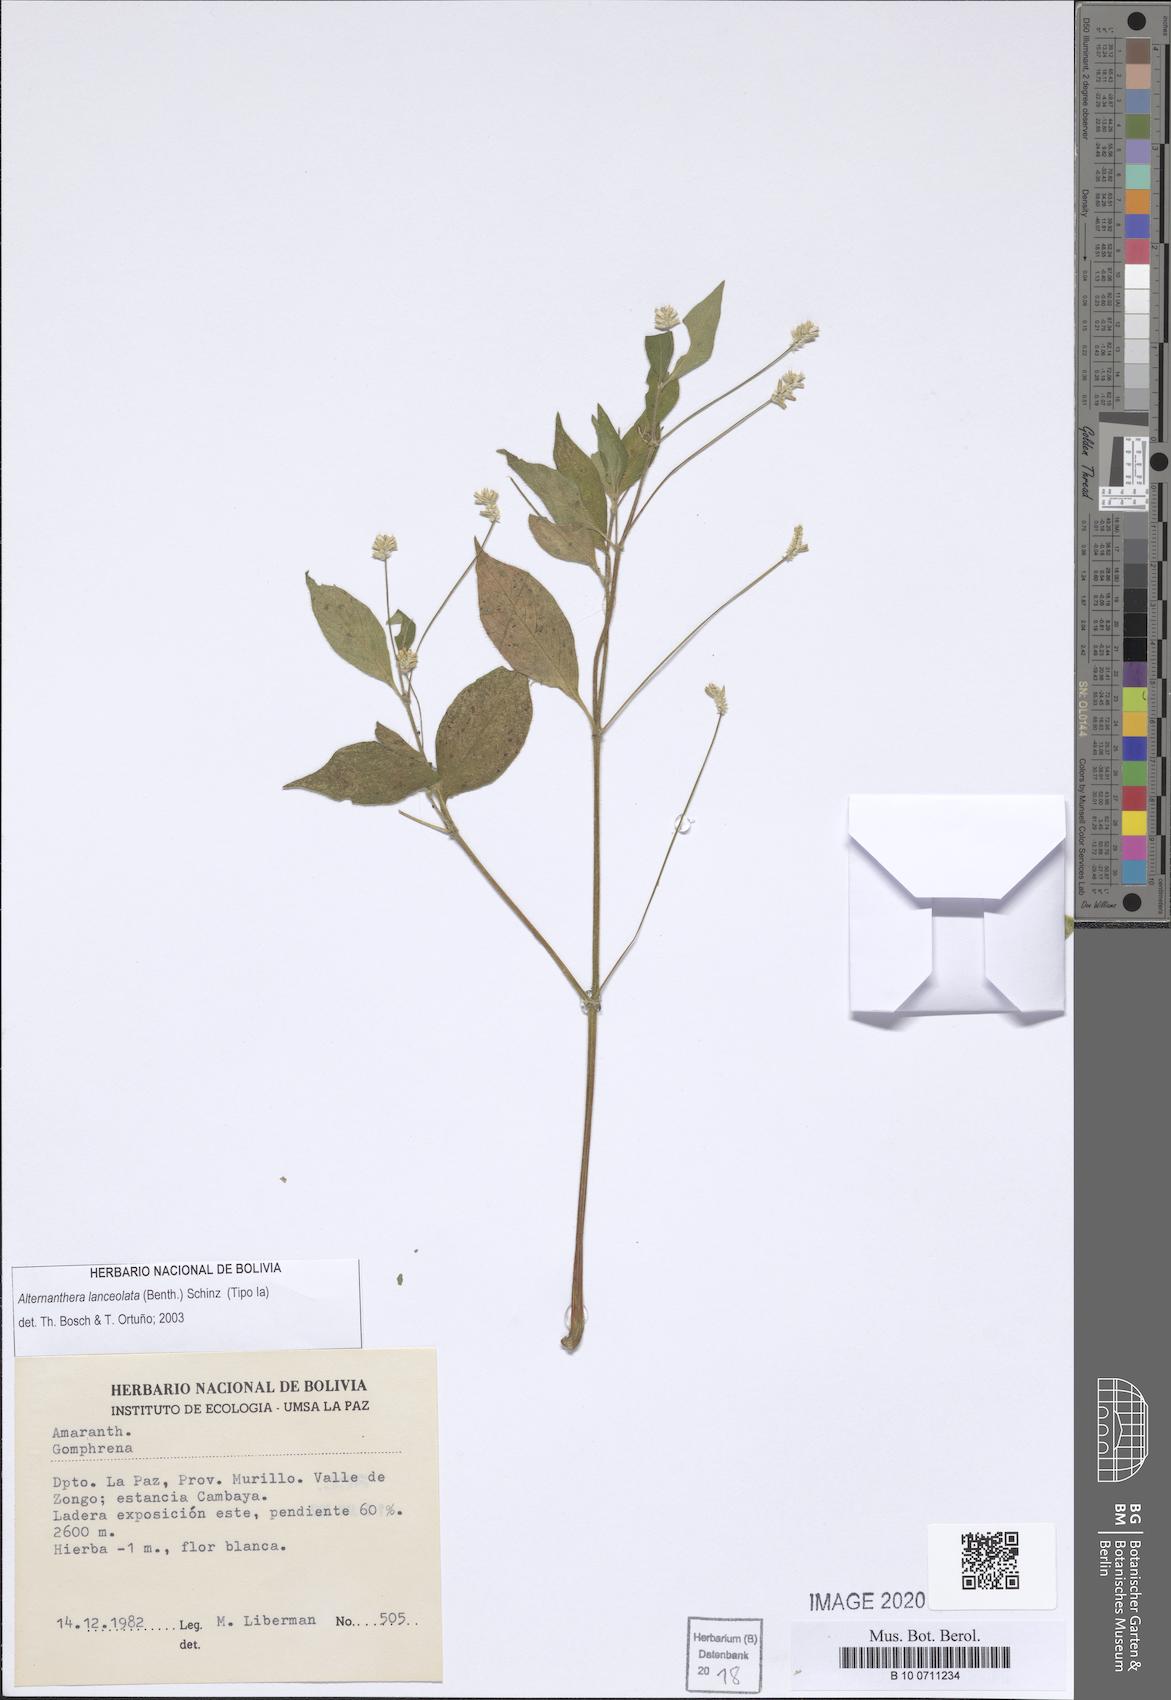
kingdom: Plantae
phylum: Tracheophyta
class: Magnoliopsida
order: Caryophyllales
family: Amaranthaceae
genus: Alternanthera
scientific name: Alternanthera lanceolata
